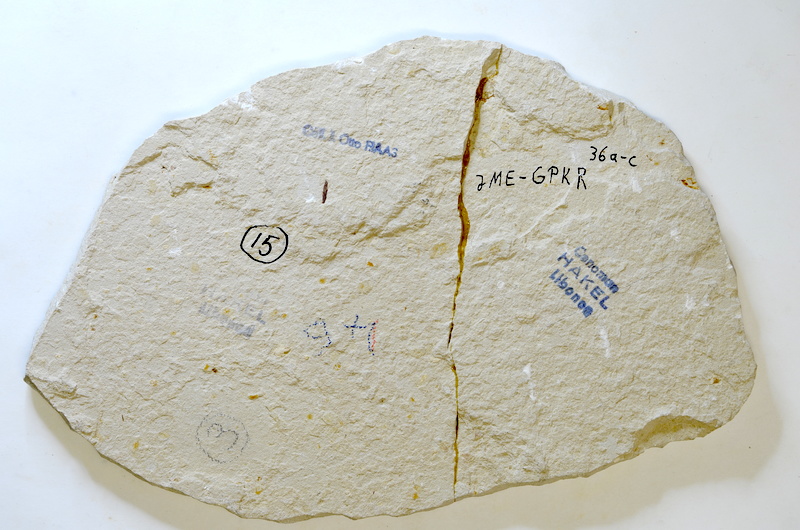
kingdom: Animalia
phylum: Chordata
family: Armigatidae
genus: Armigatus
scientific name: Armigatus Clupea brevissima
